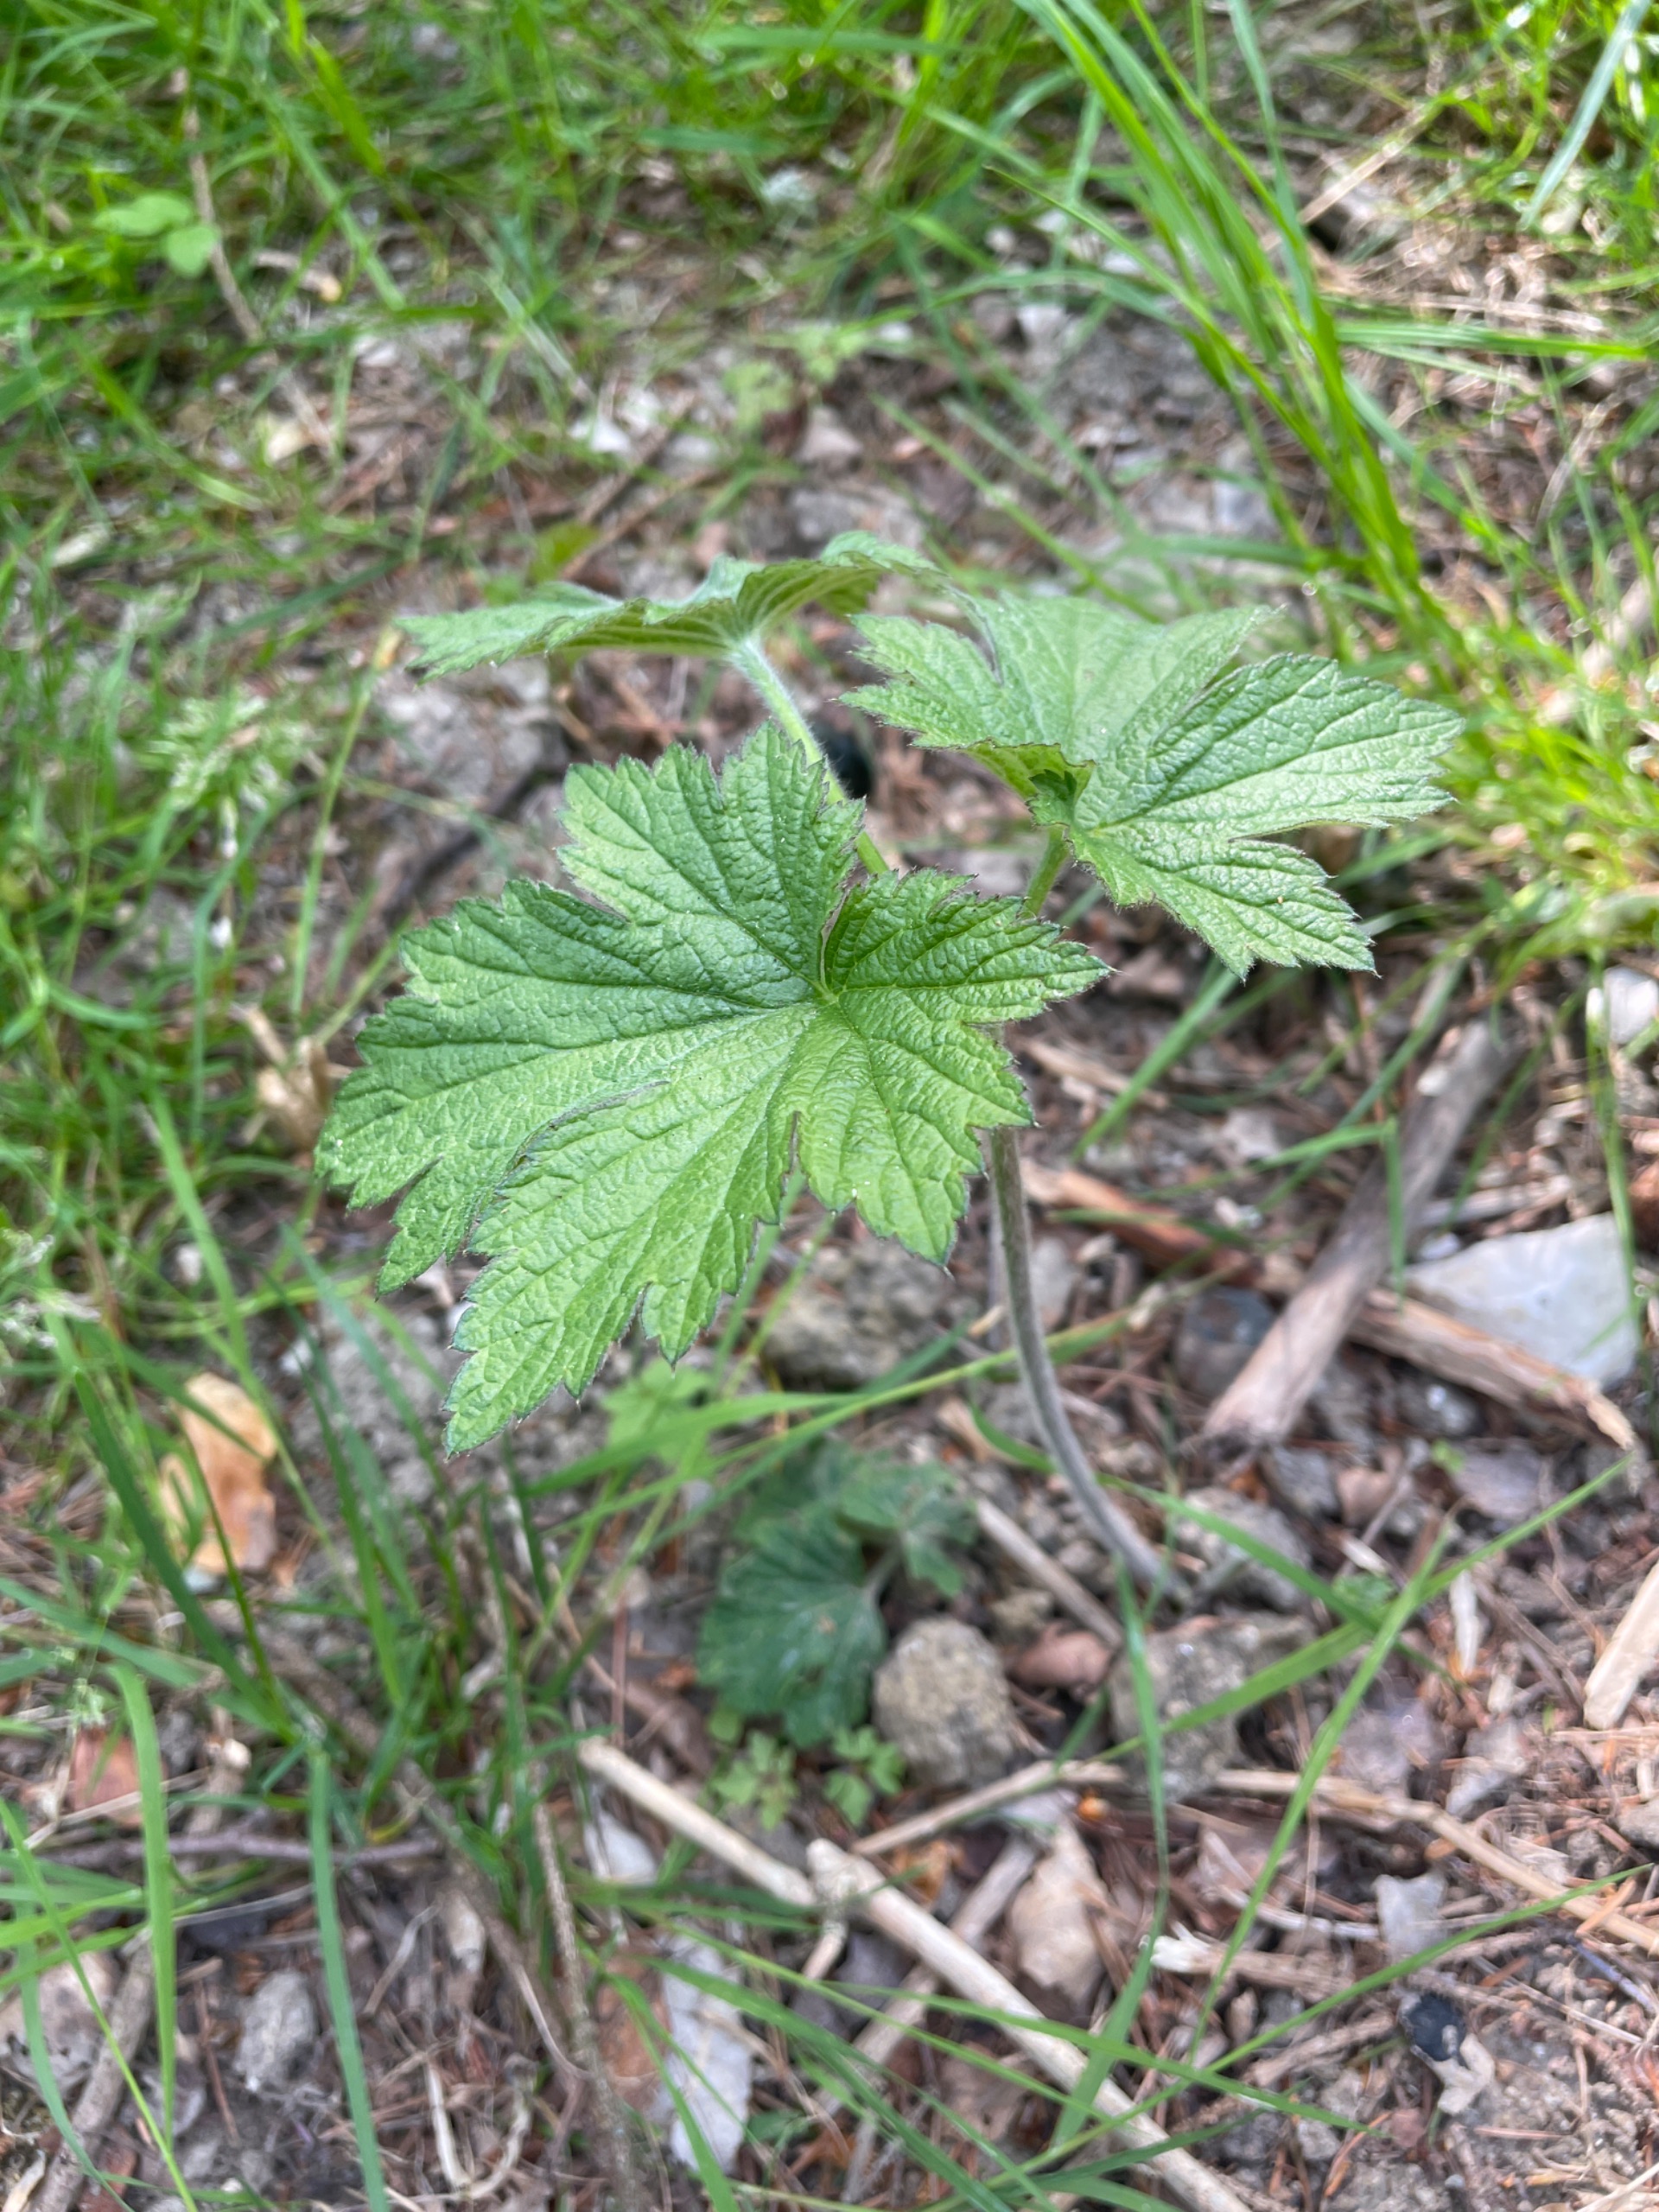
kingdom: Plantae
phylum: Tracheophyta
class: Magnoliopsida
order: Ranunculales
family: Ranunculaceae
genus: Eriocapitella
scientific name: Eriocapitella hupehensis
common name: Høst-anemone
